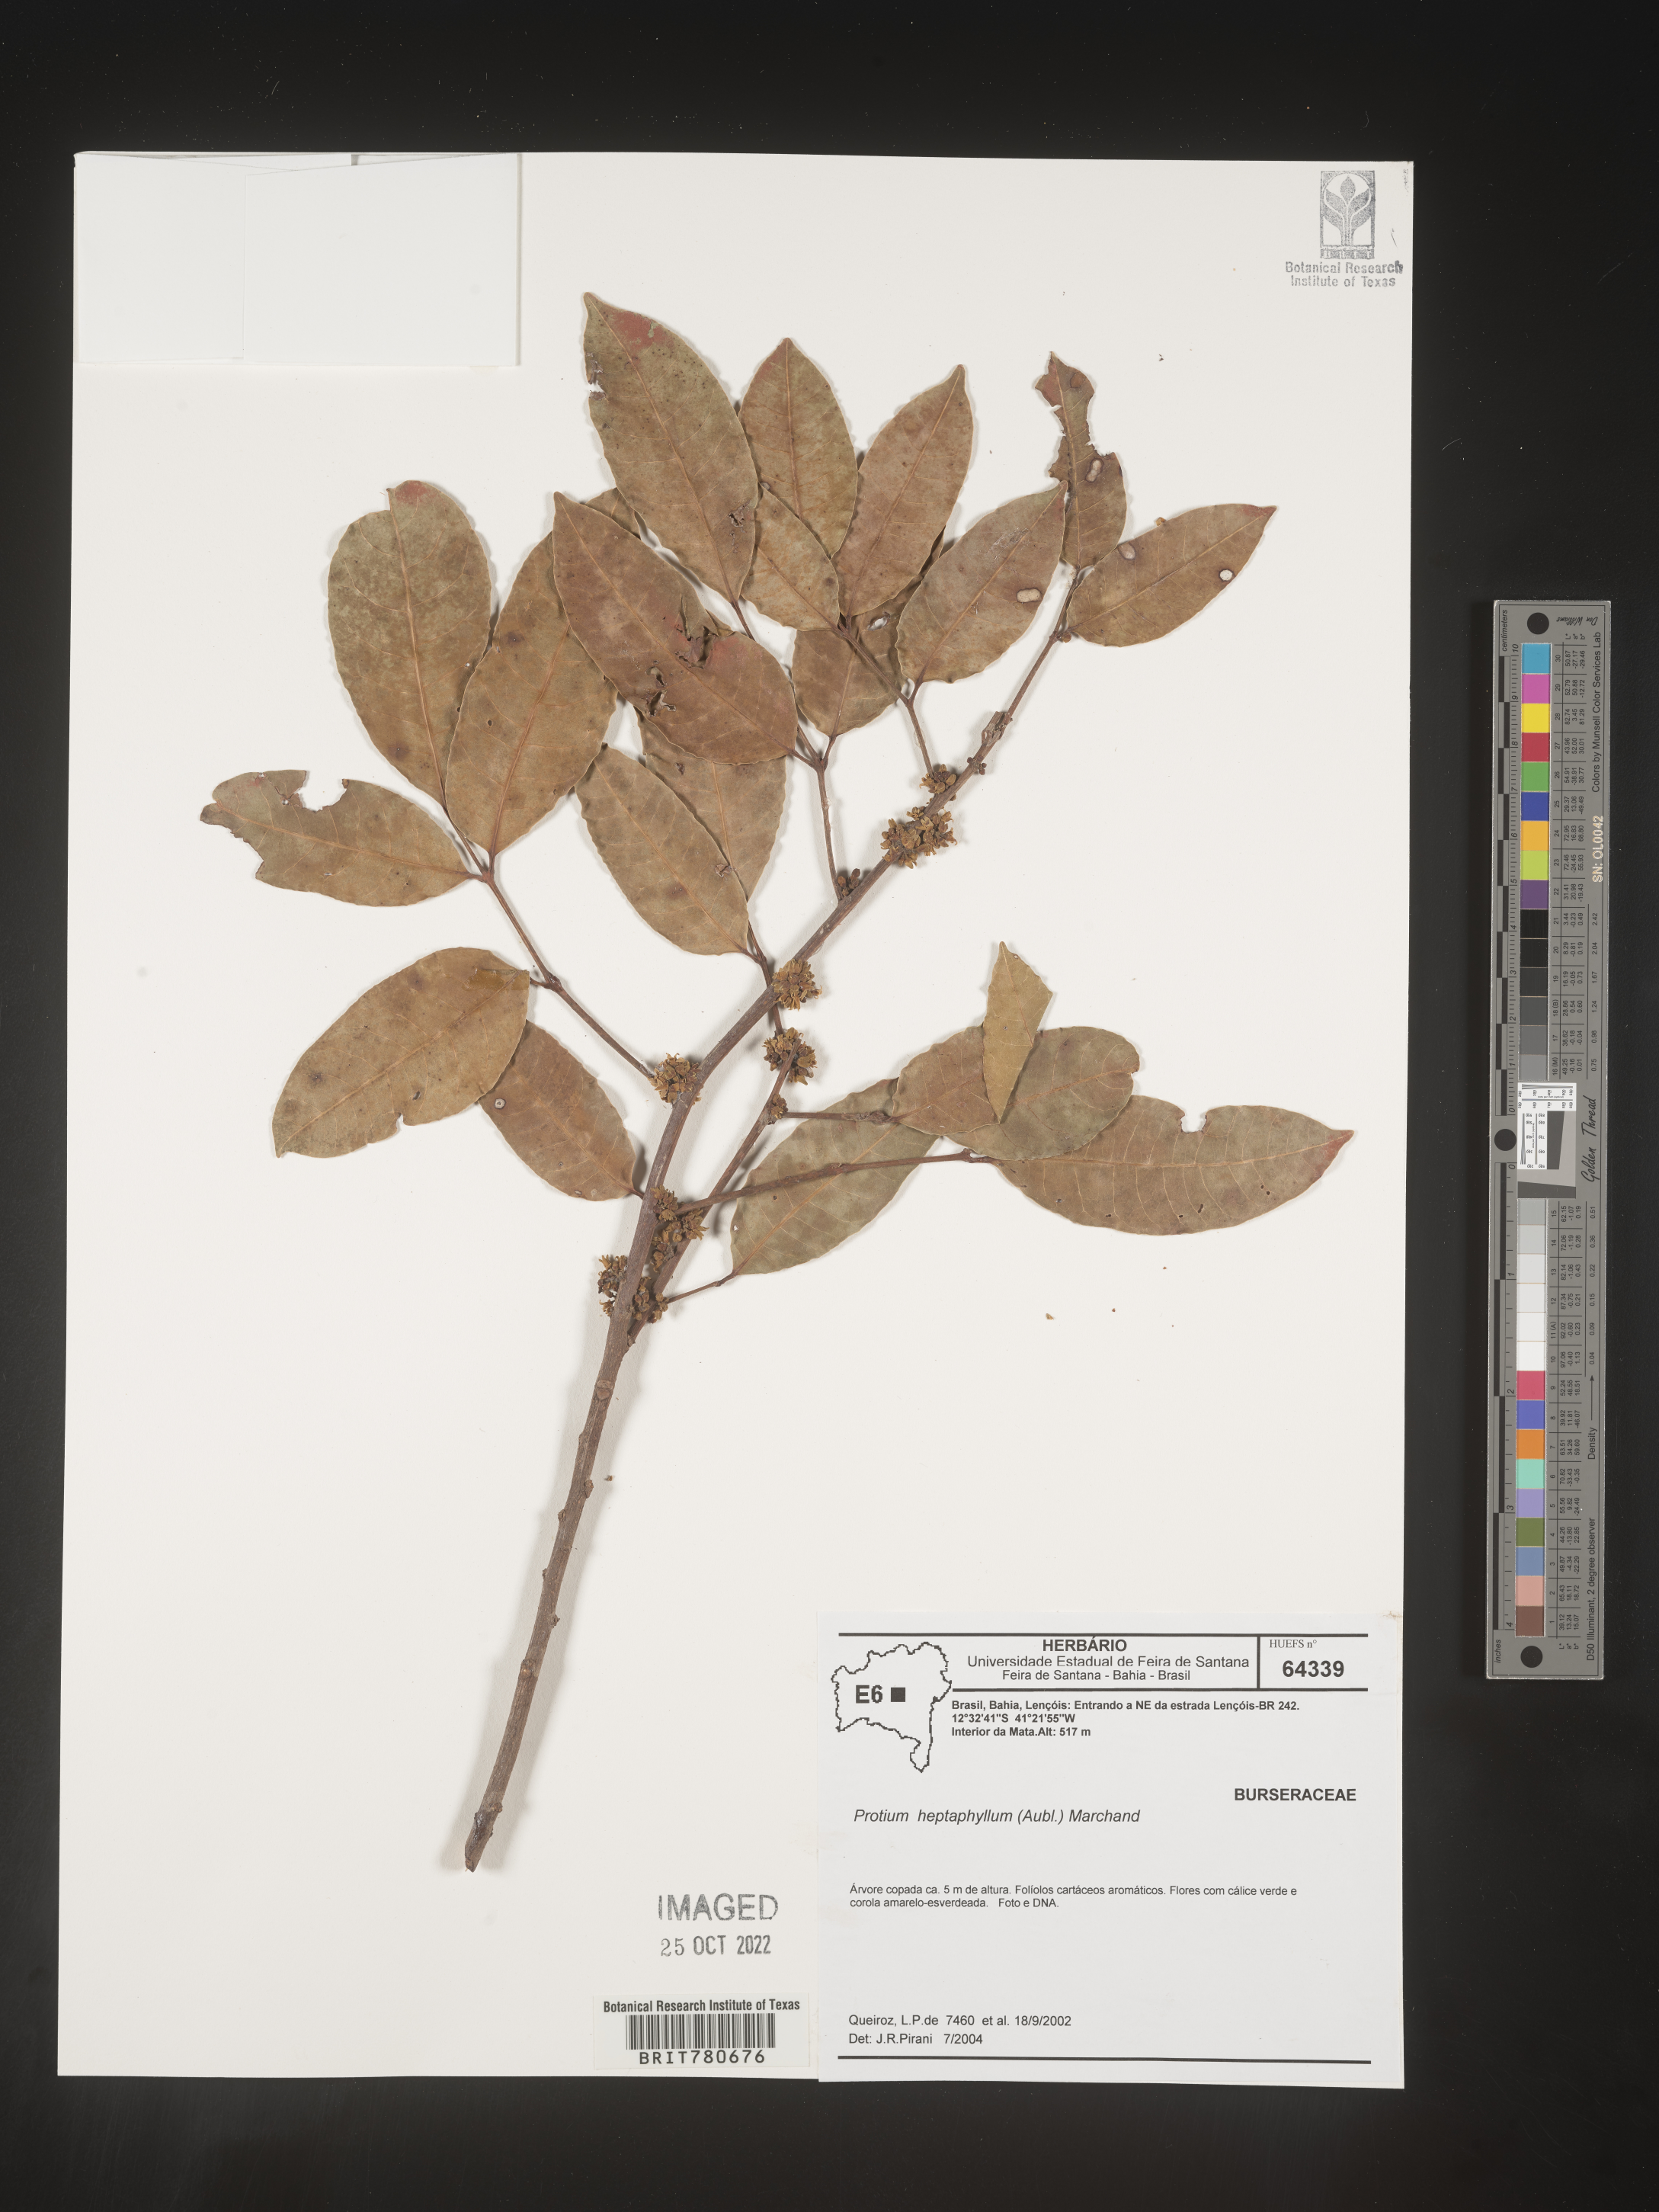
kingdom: Plantae
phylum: Tracheophyta
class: Magnoliopsida
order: Sapindales
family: Burseraceae
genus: Protium
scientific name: Protium
